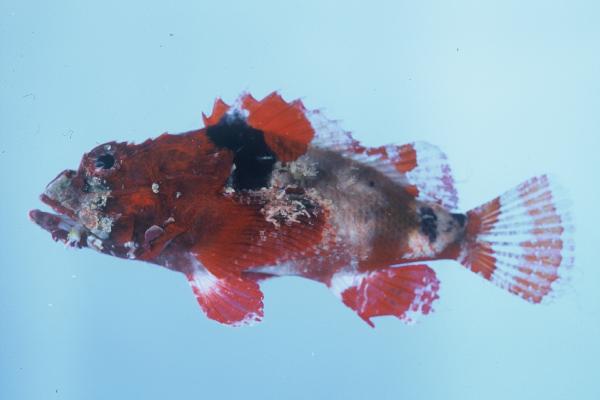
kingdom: Animalia
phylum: Chordata
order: Scorpaeniformes
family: Scorpaenidae
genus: Scorpaenopsis
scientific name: Scorpaenopsis vittapinna
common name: Bandfin scorpionfish
